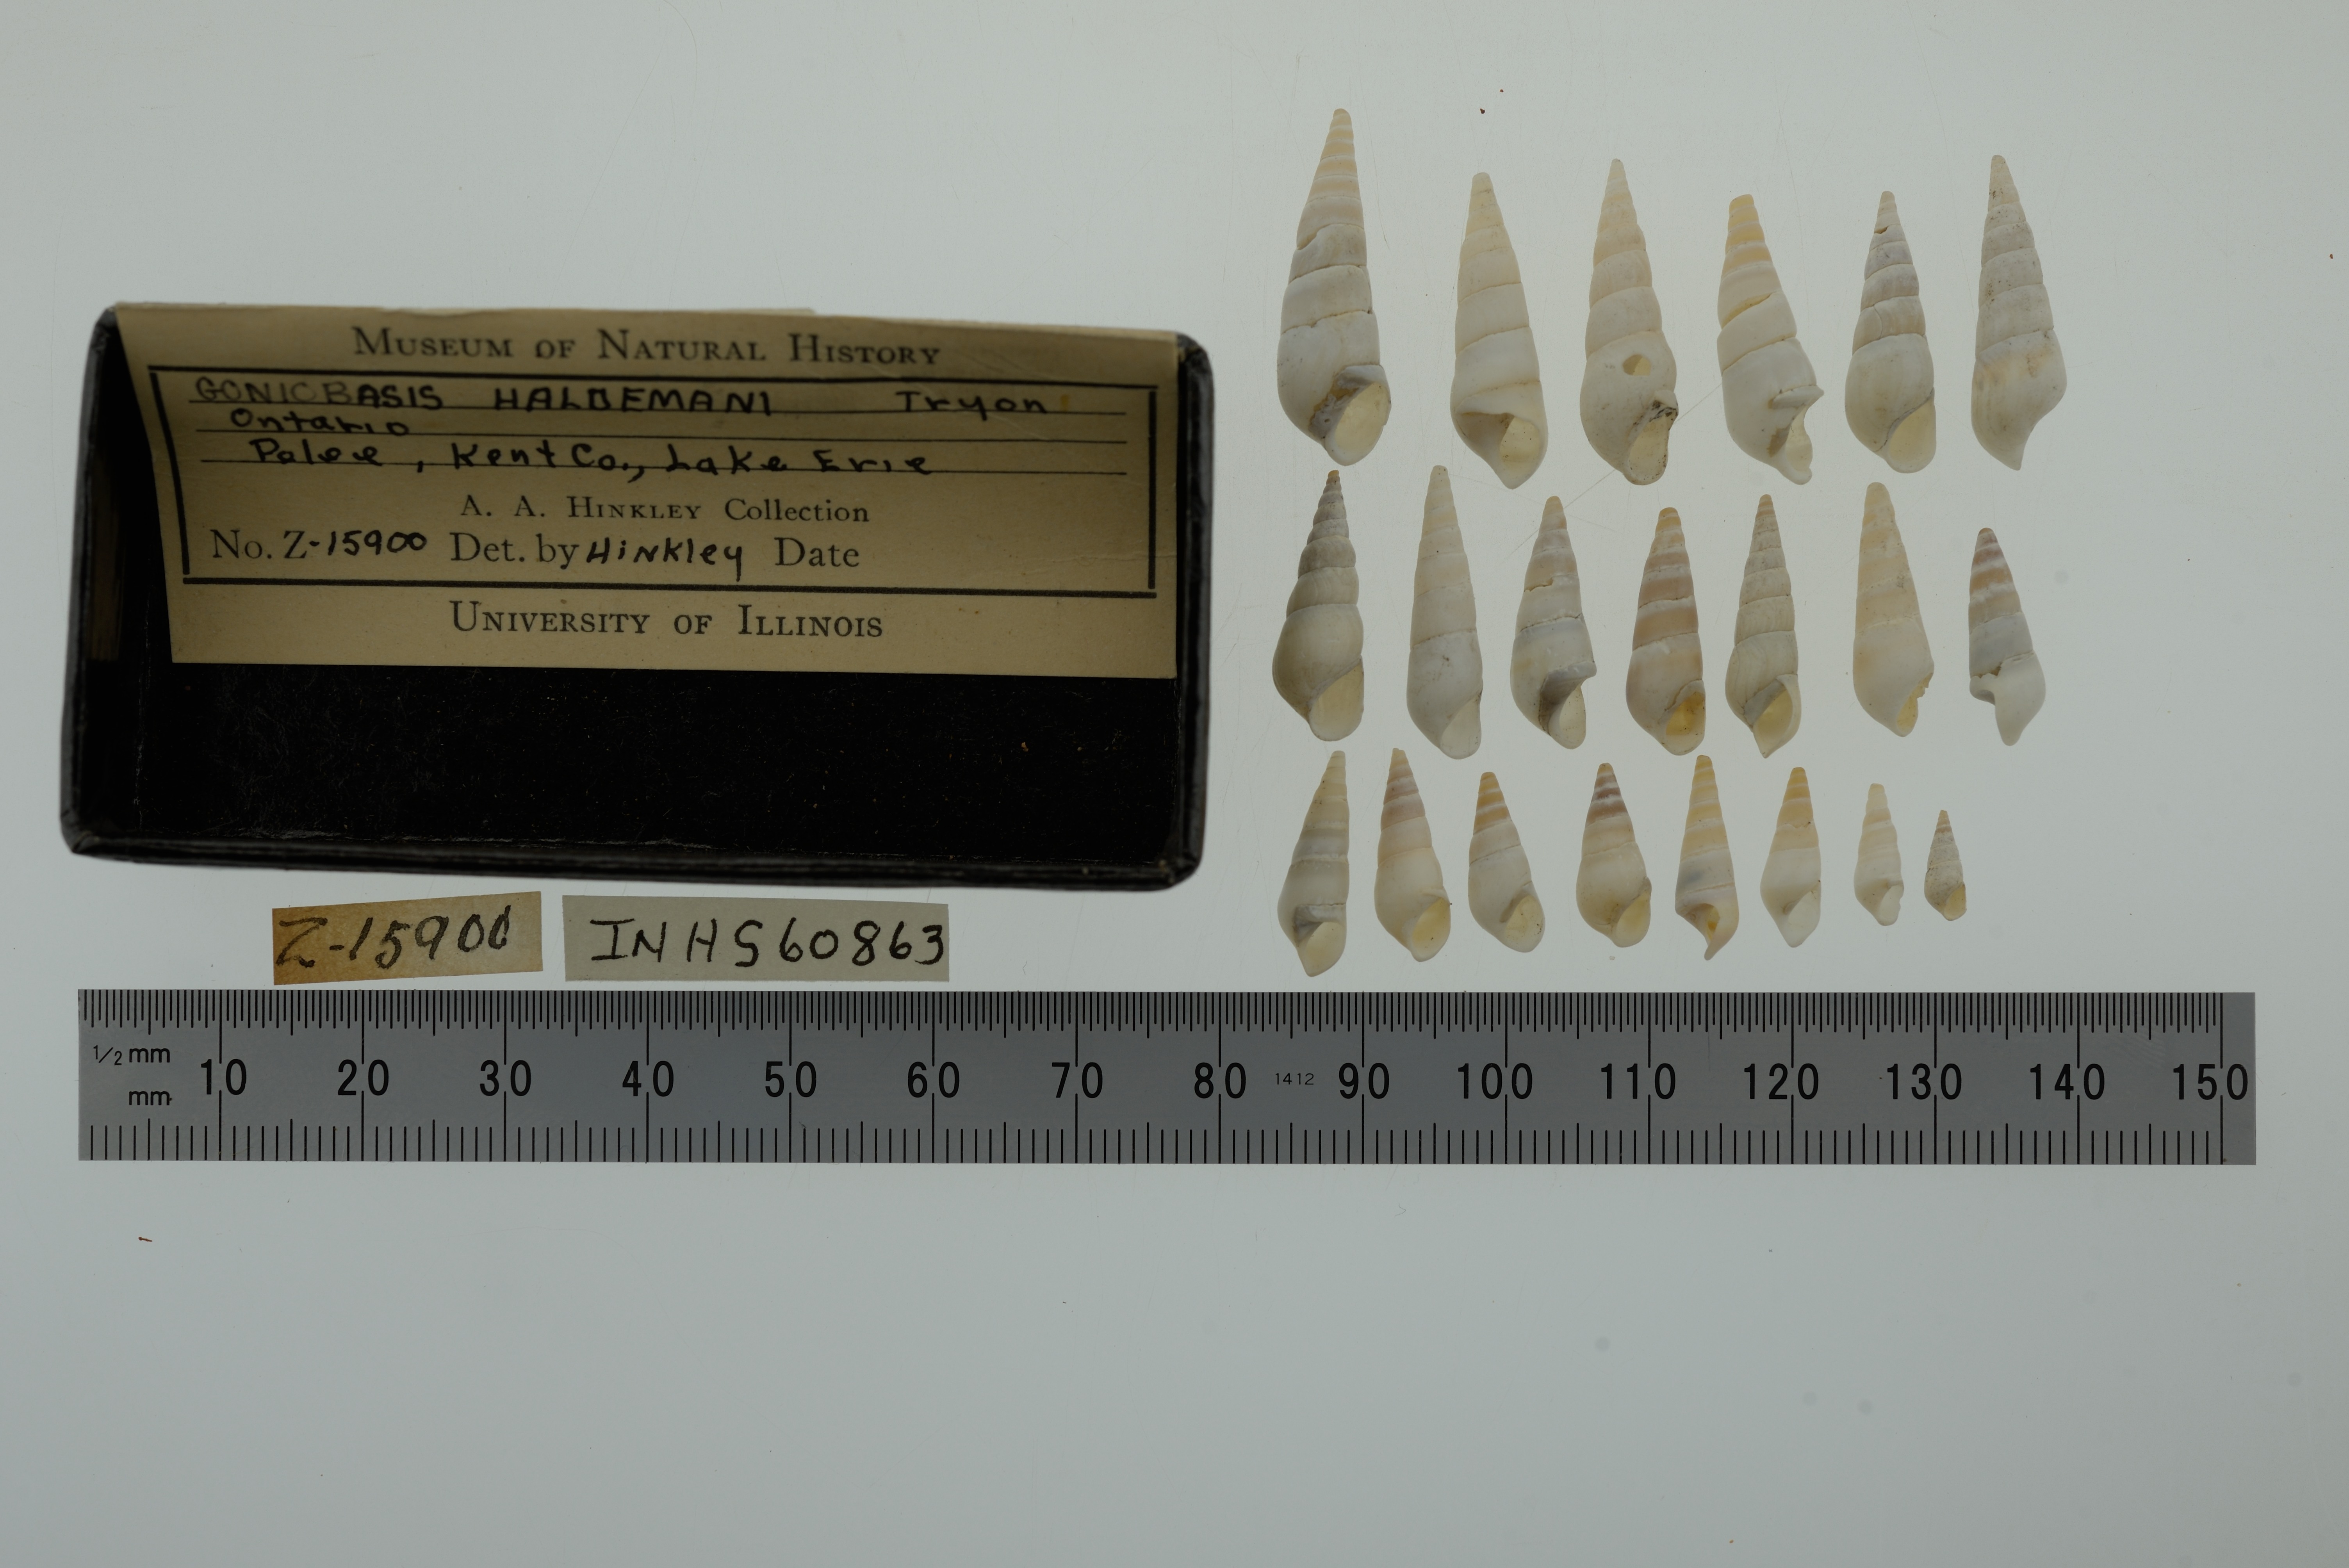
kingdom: Animalia
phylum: Mollusca
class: Gastropoda
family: Pleuroceridae
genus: Elimia
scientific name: Elimia livescens
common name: Liver elimia
